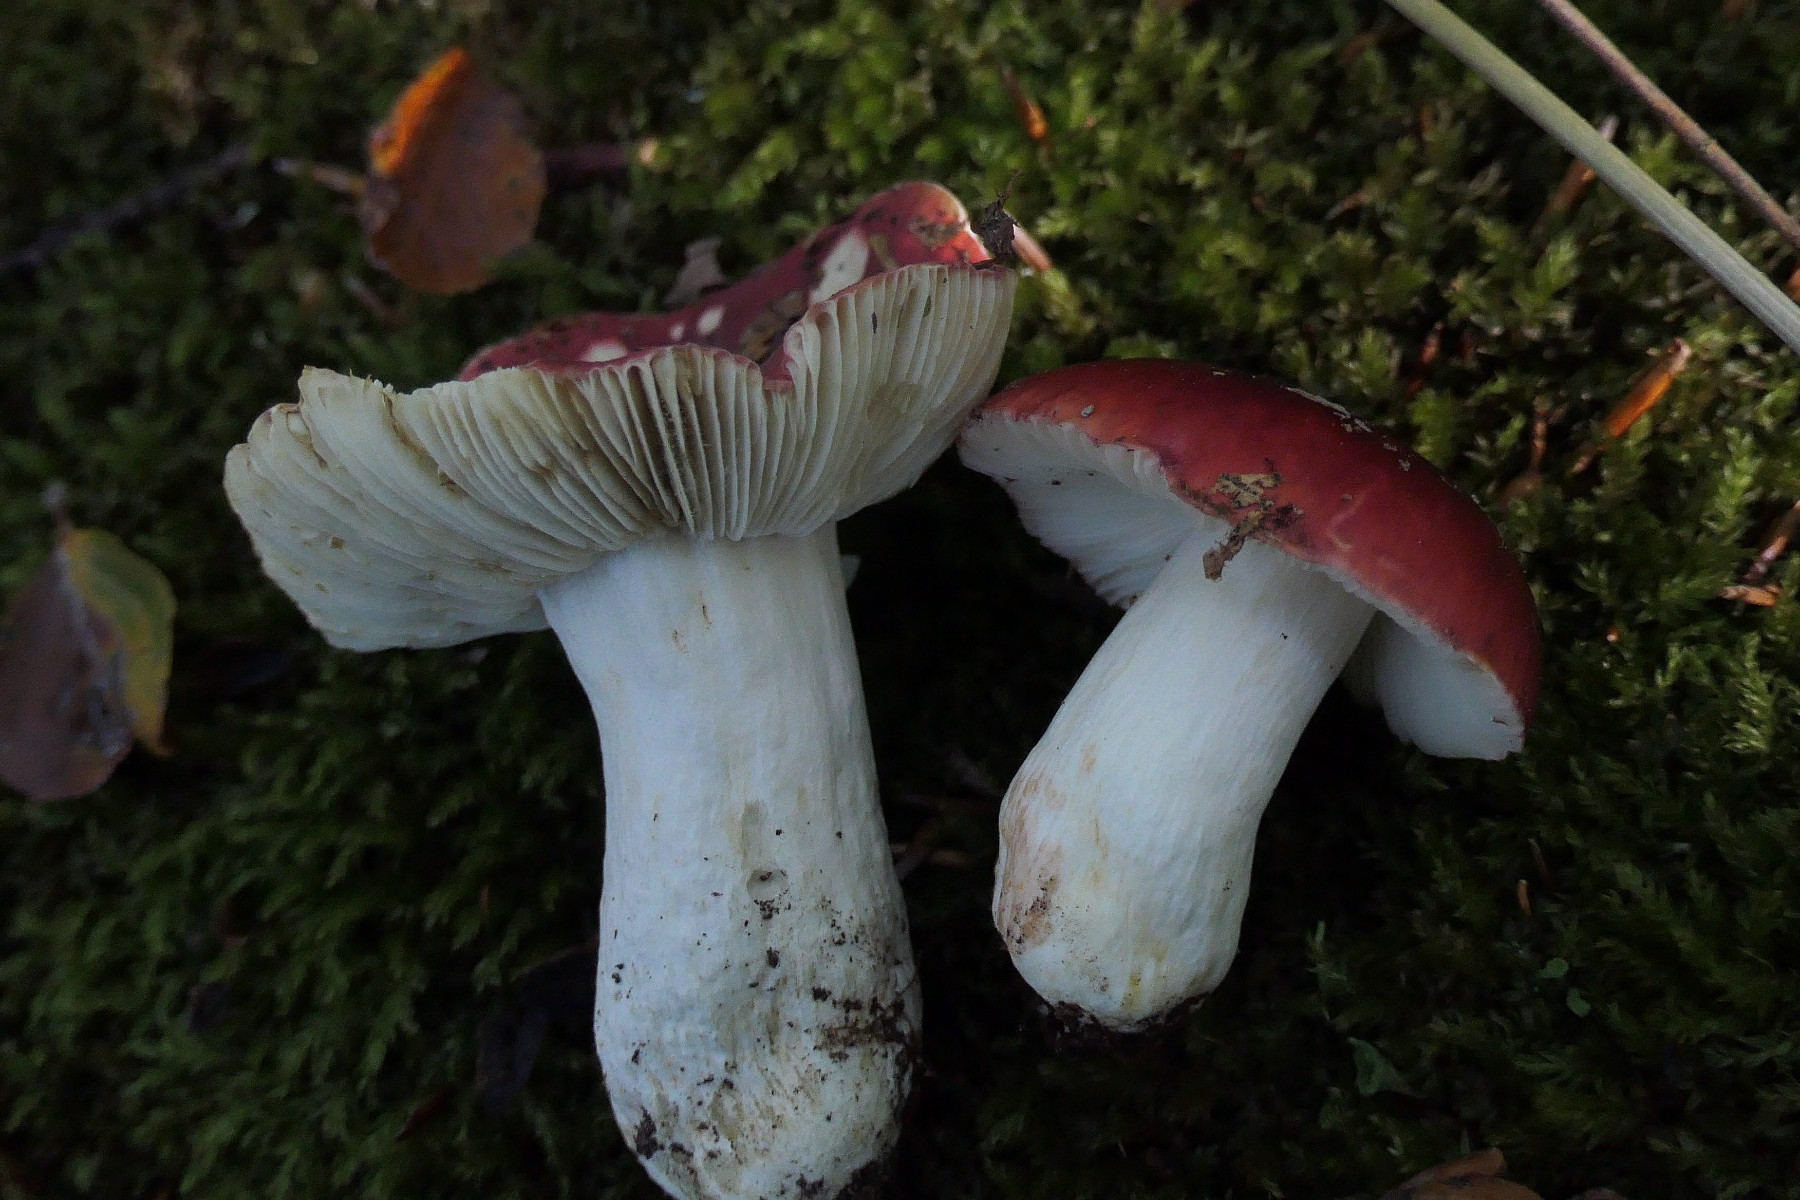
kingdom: Fungi
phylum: Basidiomycota
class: Agaricomycetes
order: Russulales
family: Russulaceae
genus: Russula
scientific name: Russula atropurpurea
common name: purpurbroget skørhat
